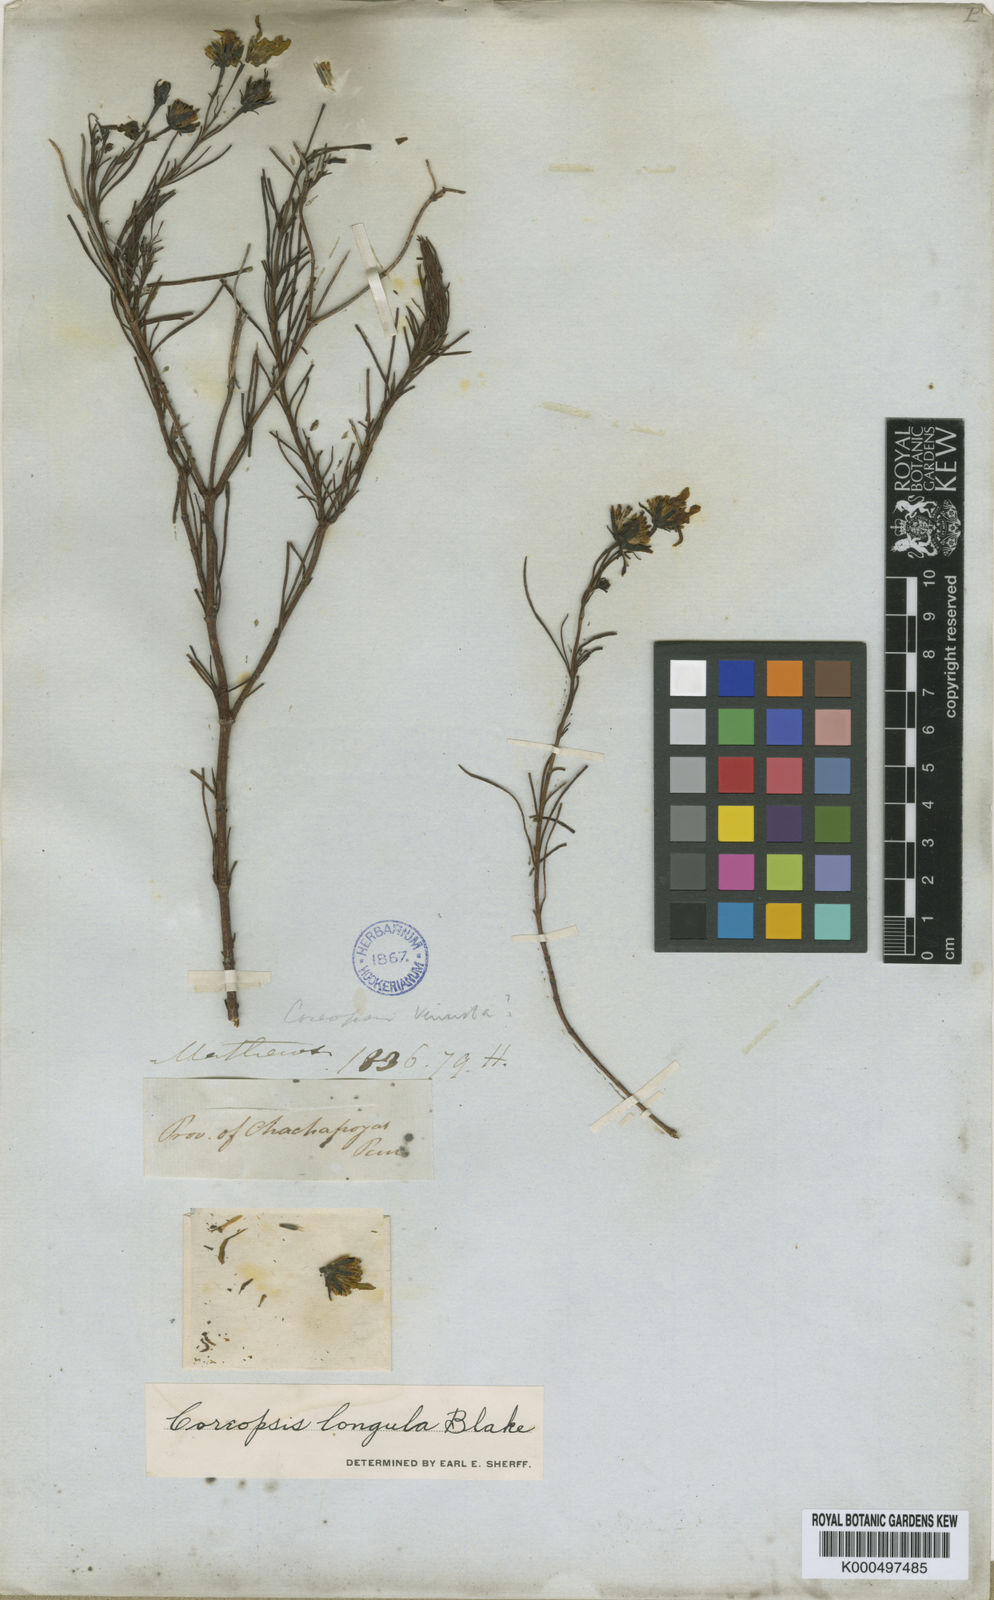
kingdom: Plantae
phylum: Tracheophyta
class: Magnoliopsida
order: Asterales
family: Asteraceae
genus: Coreopsis
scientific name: Coreopsis longula
